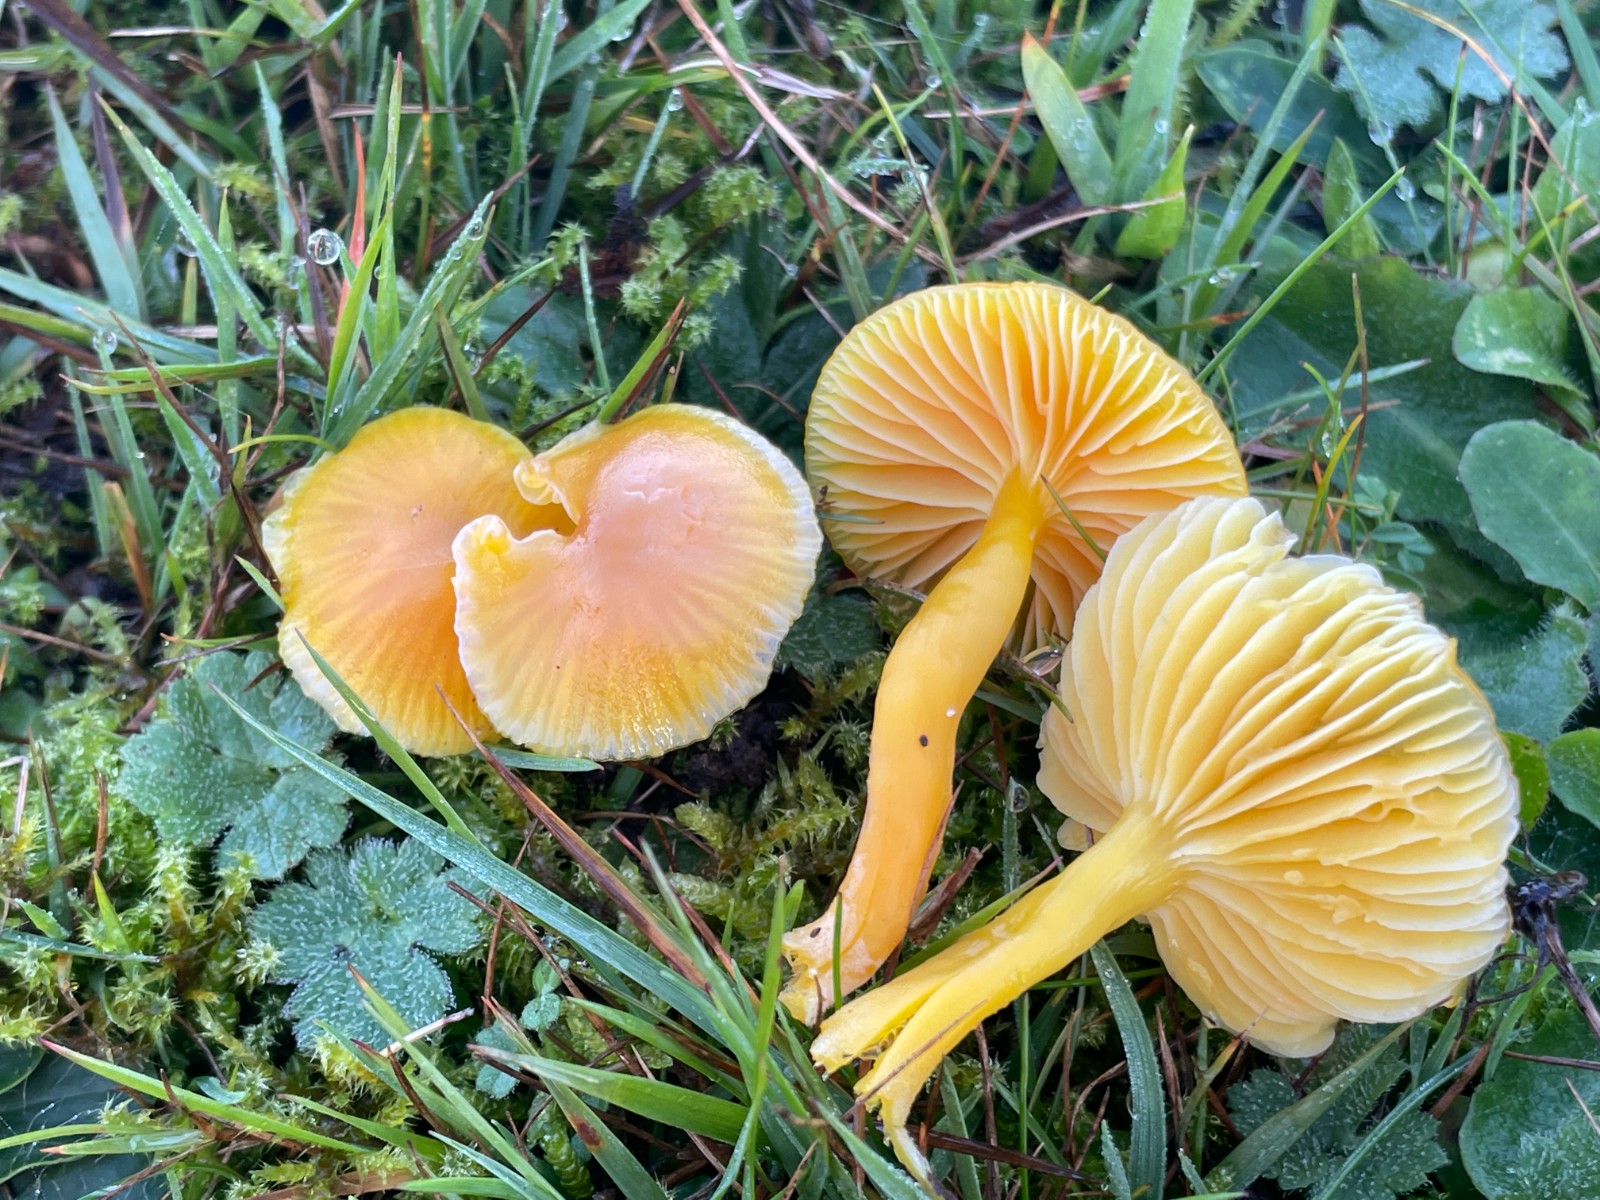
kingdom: Fungi
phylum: Basidiomycota
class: Agaricomycetes
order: Agaricales
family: Hygrophoraceae
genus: Hygrocybe
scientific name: Hygrocybe ceracea
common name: voksgul vokshat
